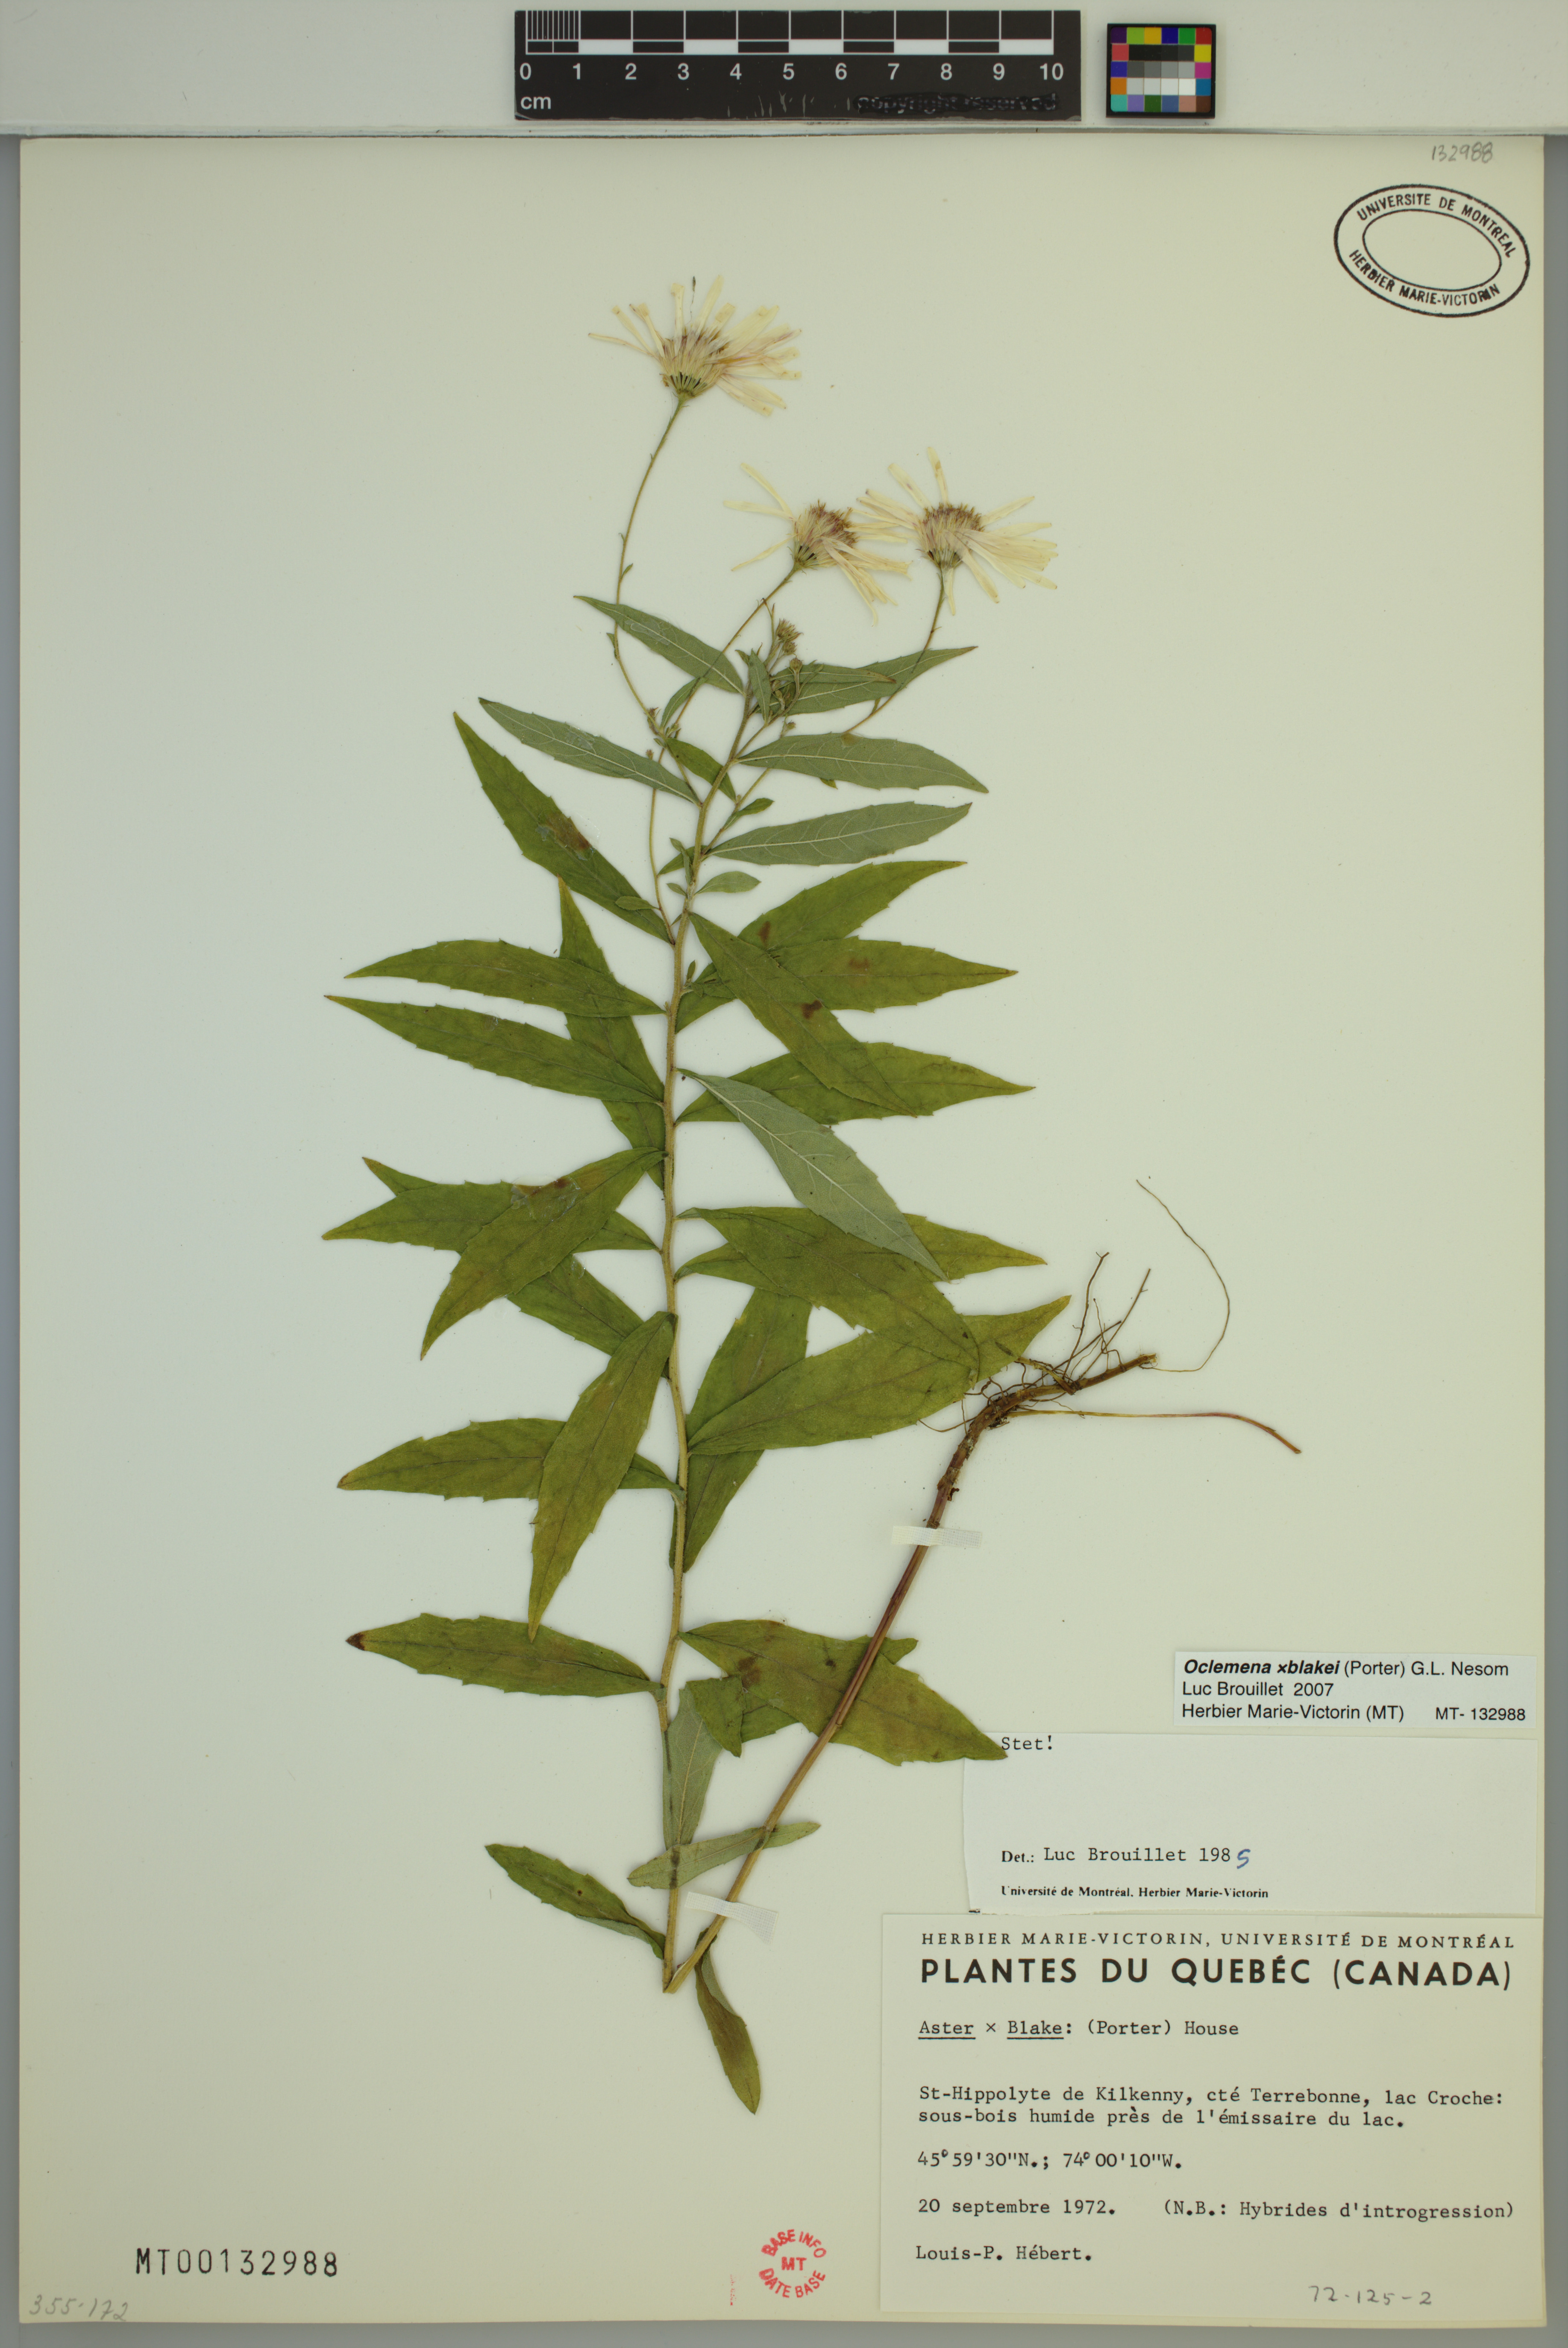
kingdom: Plantae
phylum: Tracheophyta
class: Magnoliopsida
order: Asterales
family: Asteraceae
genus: Oclemena
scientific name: Oclemena blakei
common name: Blake's aster
